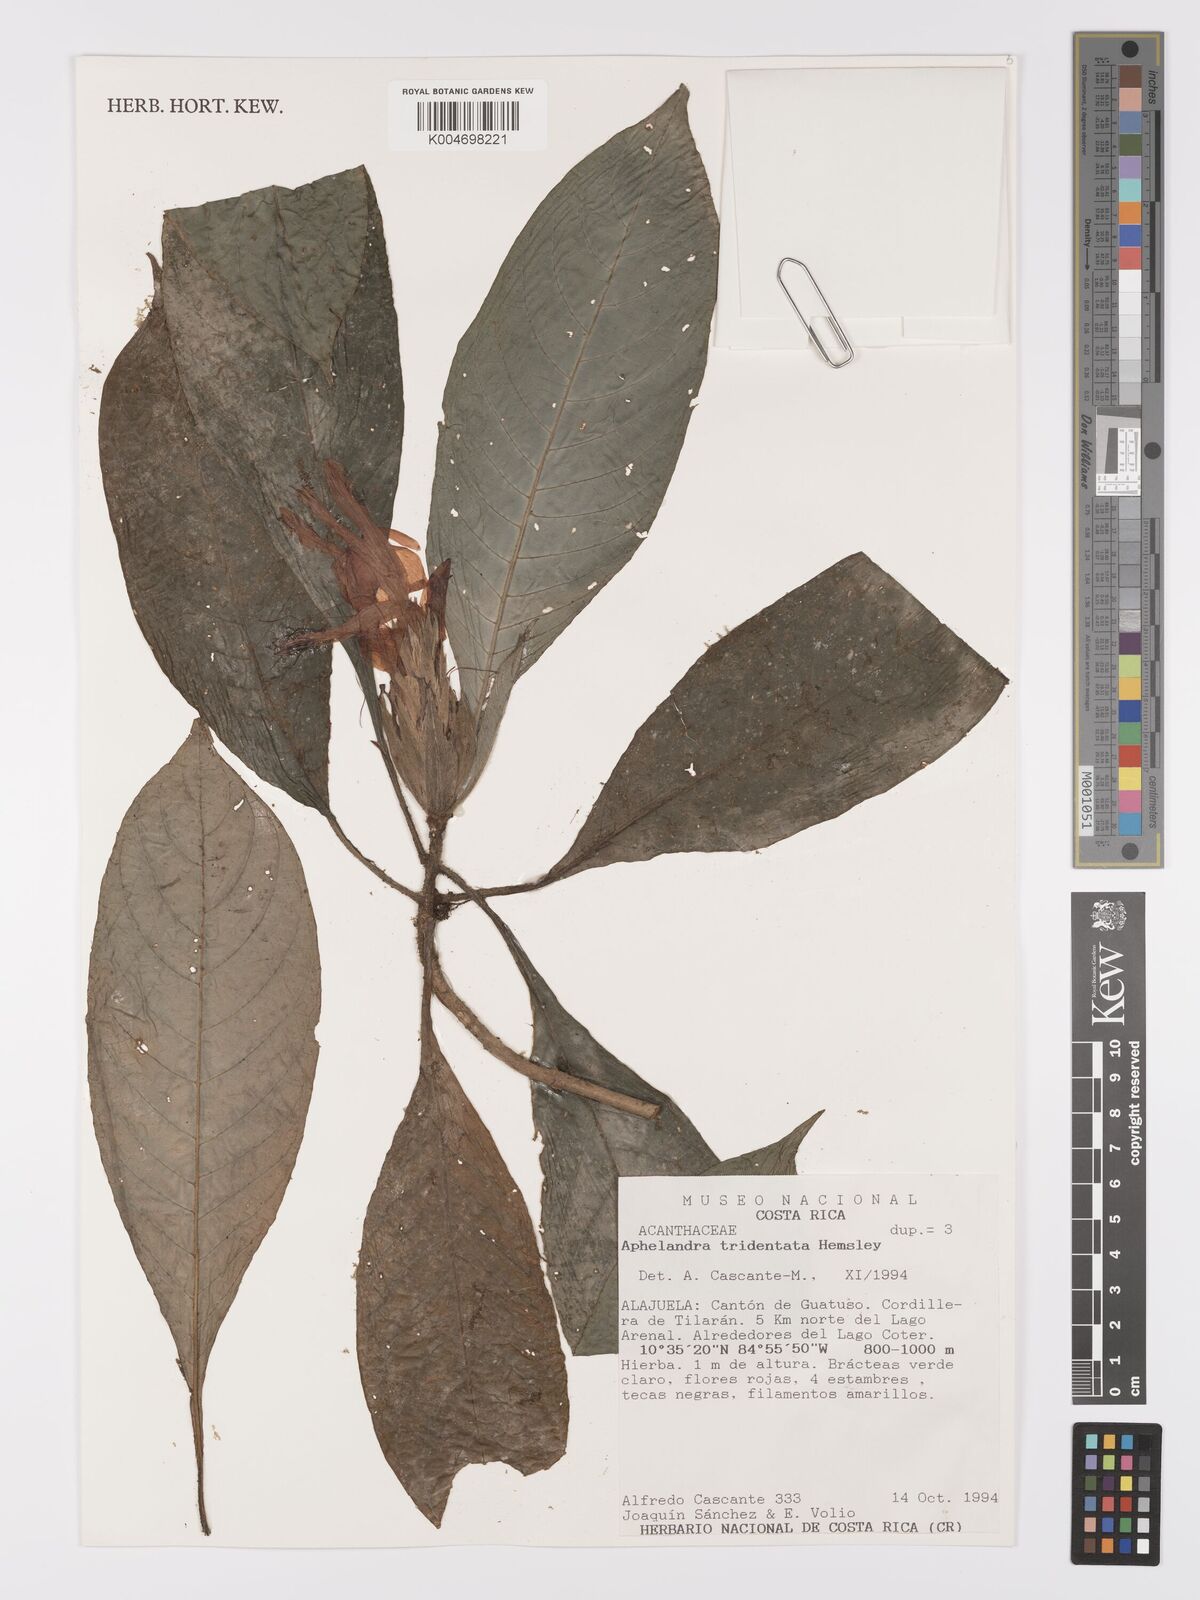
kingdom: Plantae
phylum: Tracheophyta
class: Magnoliopsida
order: Lamiales
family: Acanthaceae
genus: Aphelandra
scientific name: Aphelandra tridentata
